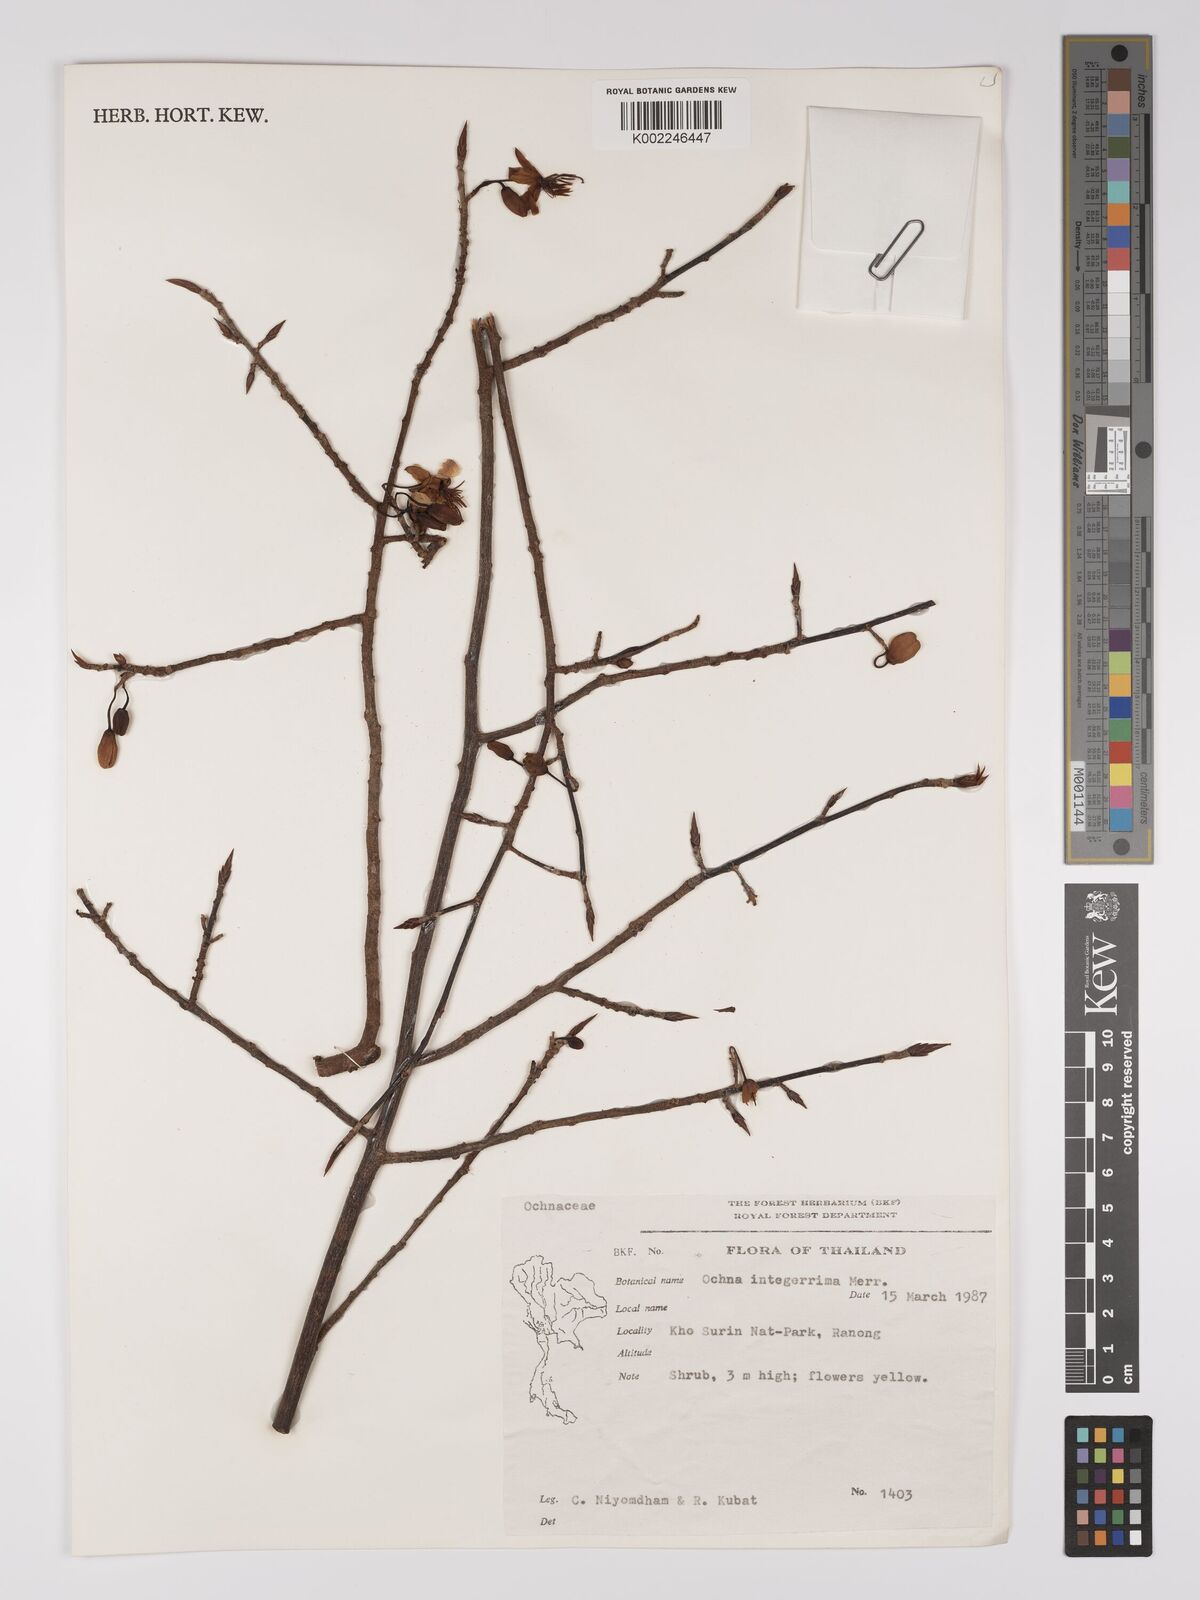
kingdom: Plantae
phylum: Tracheophyta
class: Magnoliopsida
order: Malpighiales
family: Ochnaceae
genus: Ochna
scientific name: Ochna integerrima
